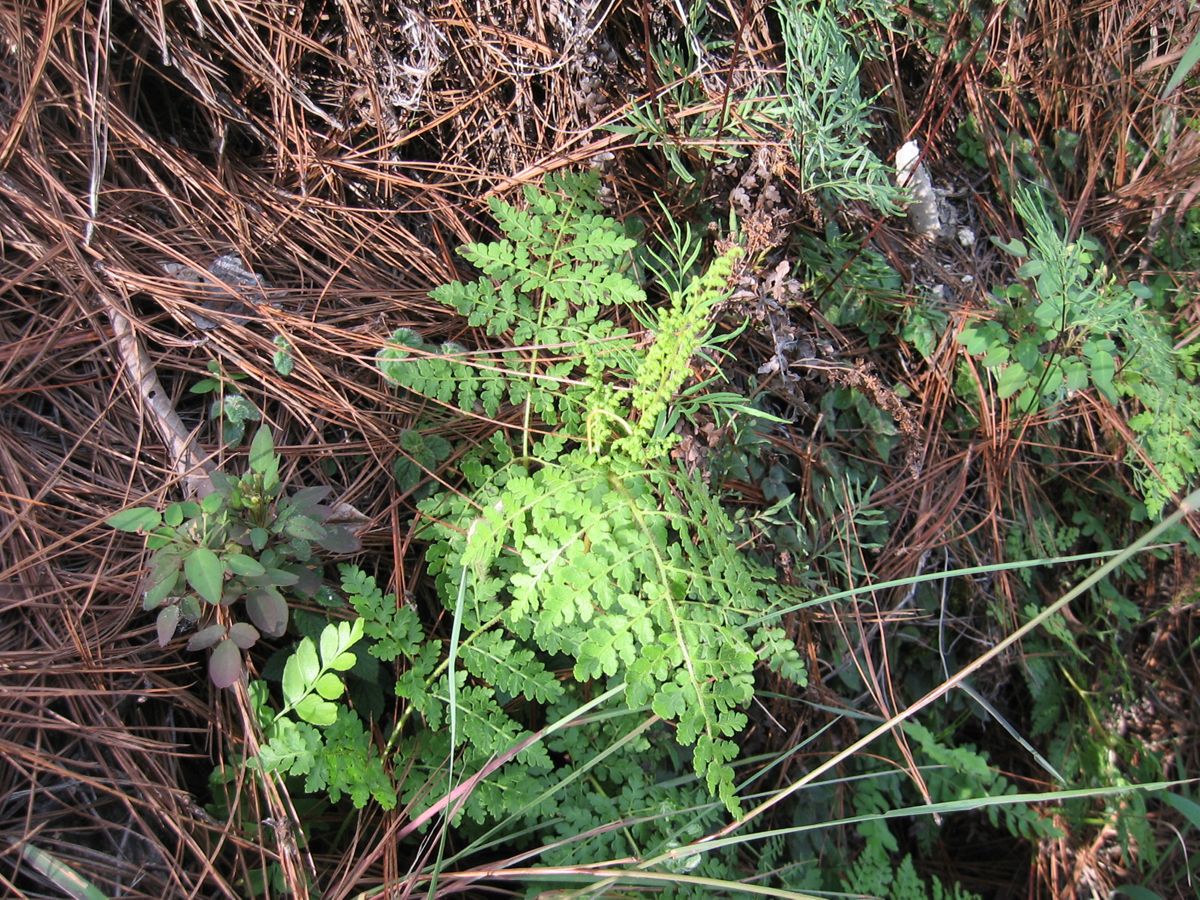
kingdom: Plantae
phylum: Tracheophyta
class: Polypodiopsida
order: Schizaeales
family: Anemiaceae
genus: Anemia
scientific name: Anemia guatemalensis
